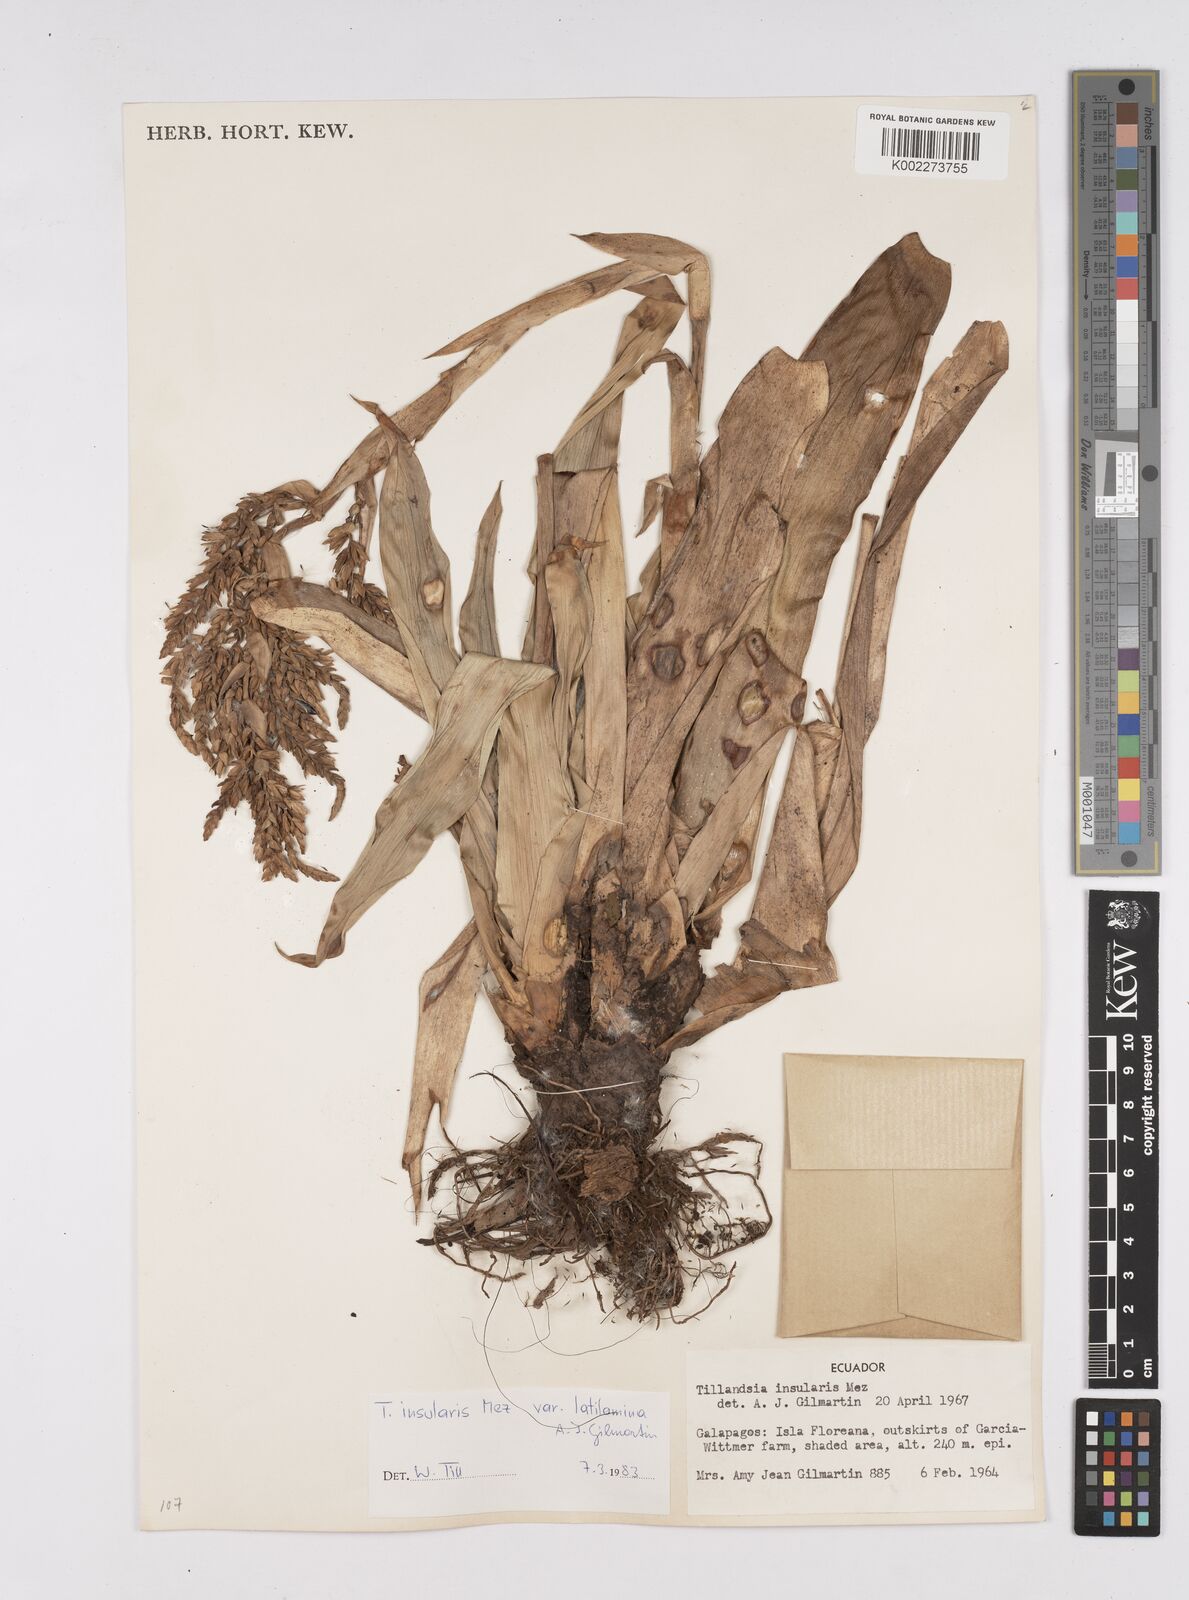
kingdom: Plantae
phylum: Tracheophyta
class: Liliopsida
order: Poales
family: Bromeliaceae
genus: Racinaea
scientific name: Racinaea insularis
